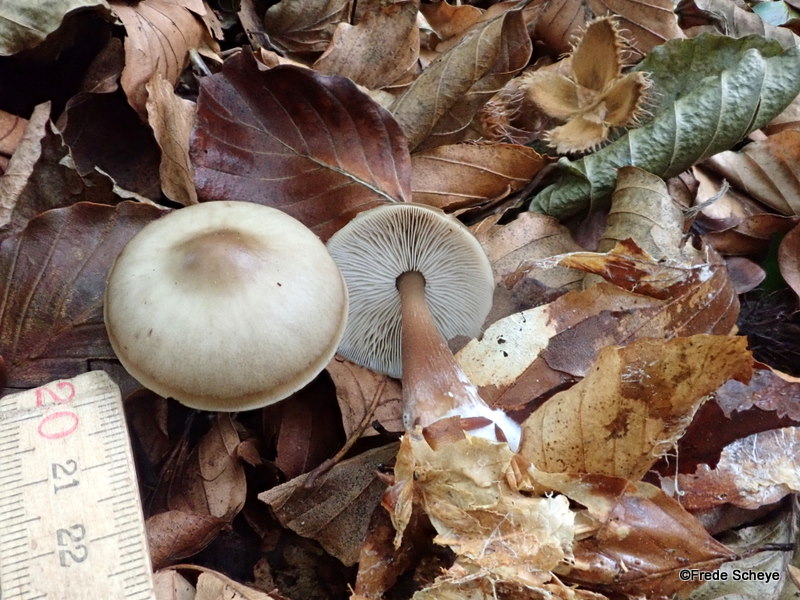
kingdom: Fungi
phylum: Basidiomycota
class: Agaricomycetes
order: Agaricales
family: Omphalotaceae
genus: Rhodocollybia
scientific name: Rhodocollybia asema
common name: horngrå fladhat
